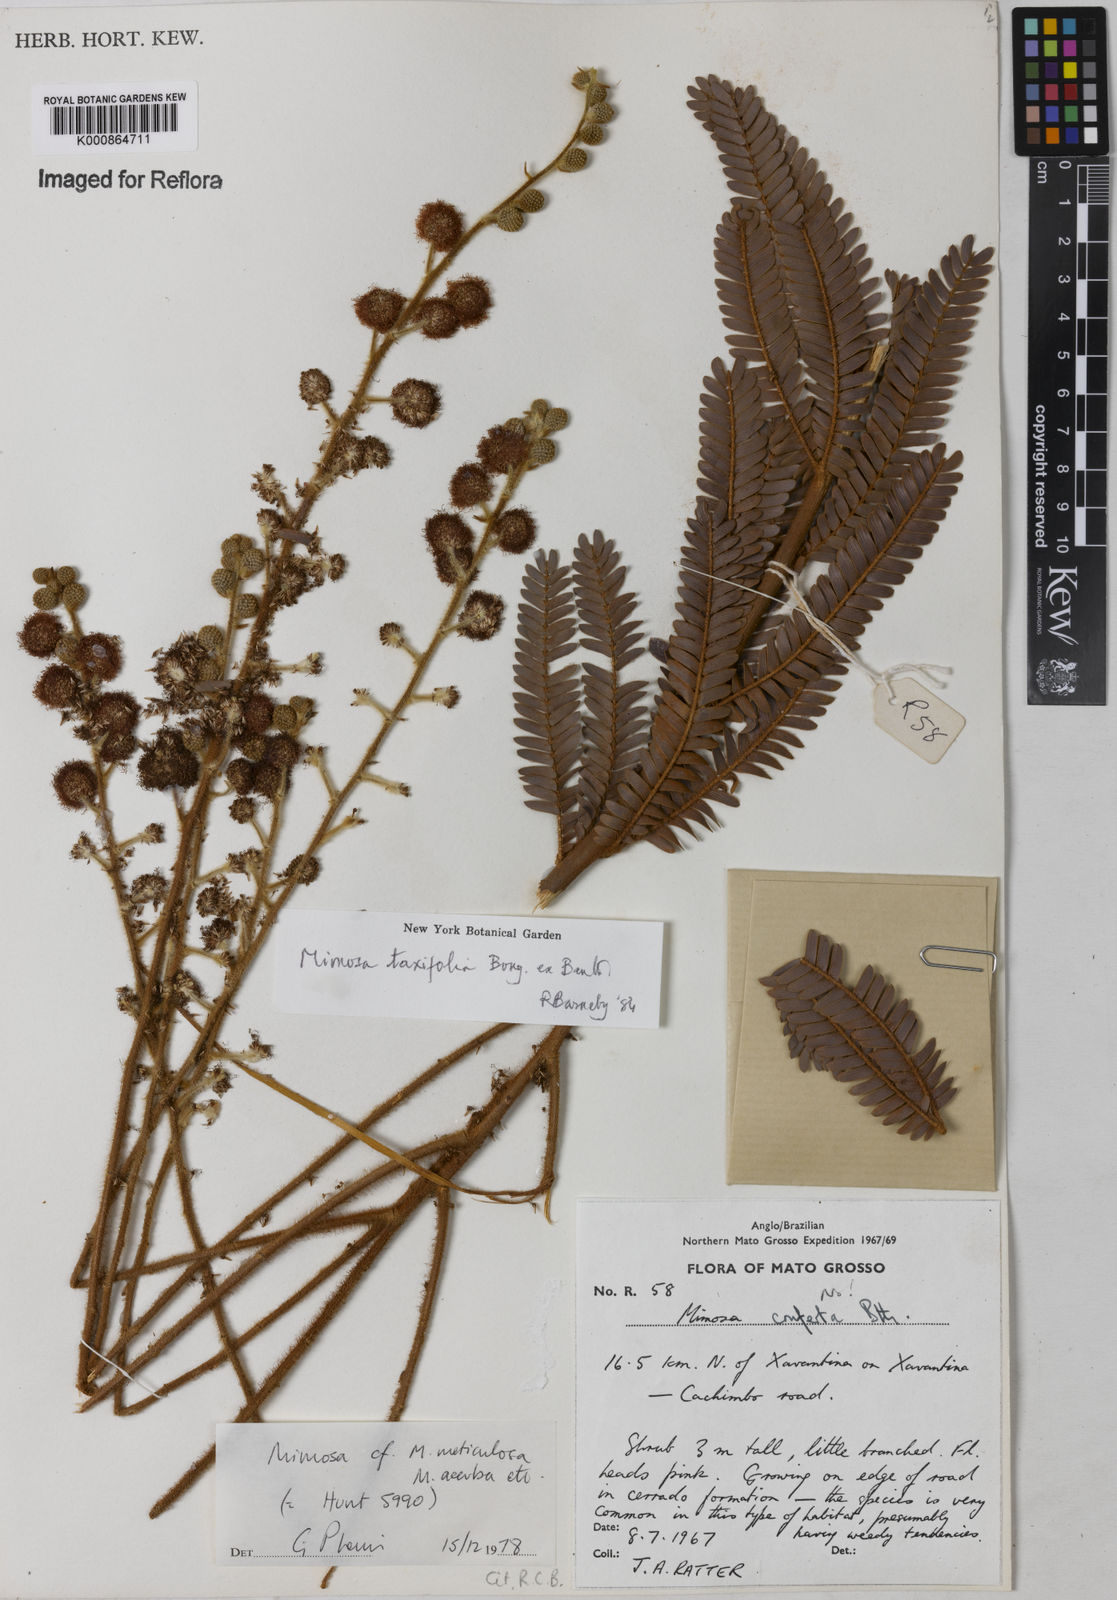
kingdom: Plantae
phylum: Tracheophyta
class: Magnoliopsida
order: Fabales
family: Fabaceae
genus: Mimosa
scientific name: Mimosa polycephala
